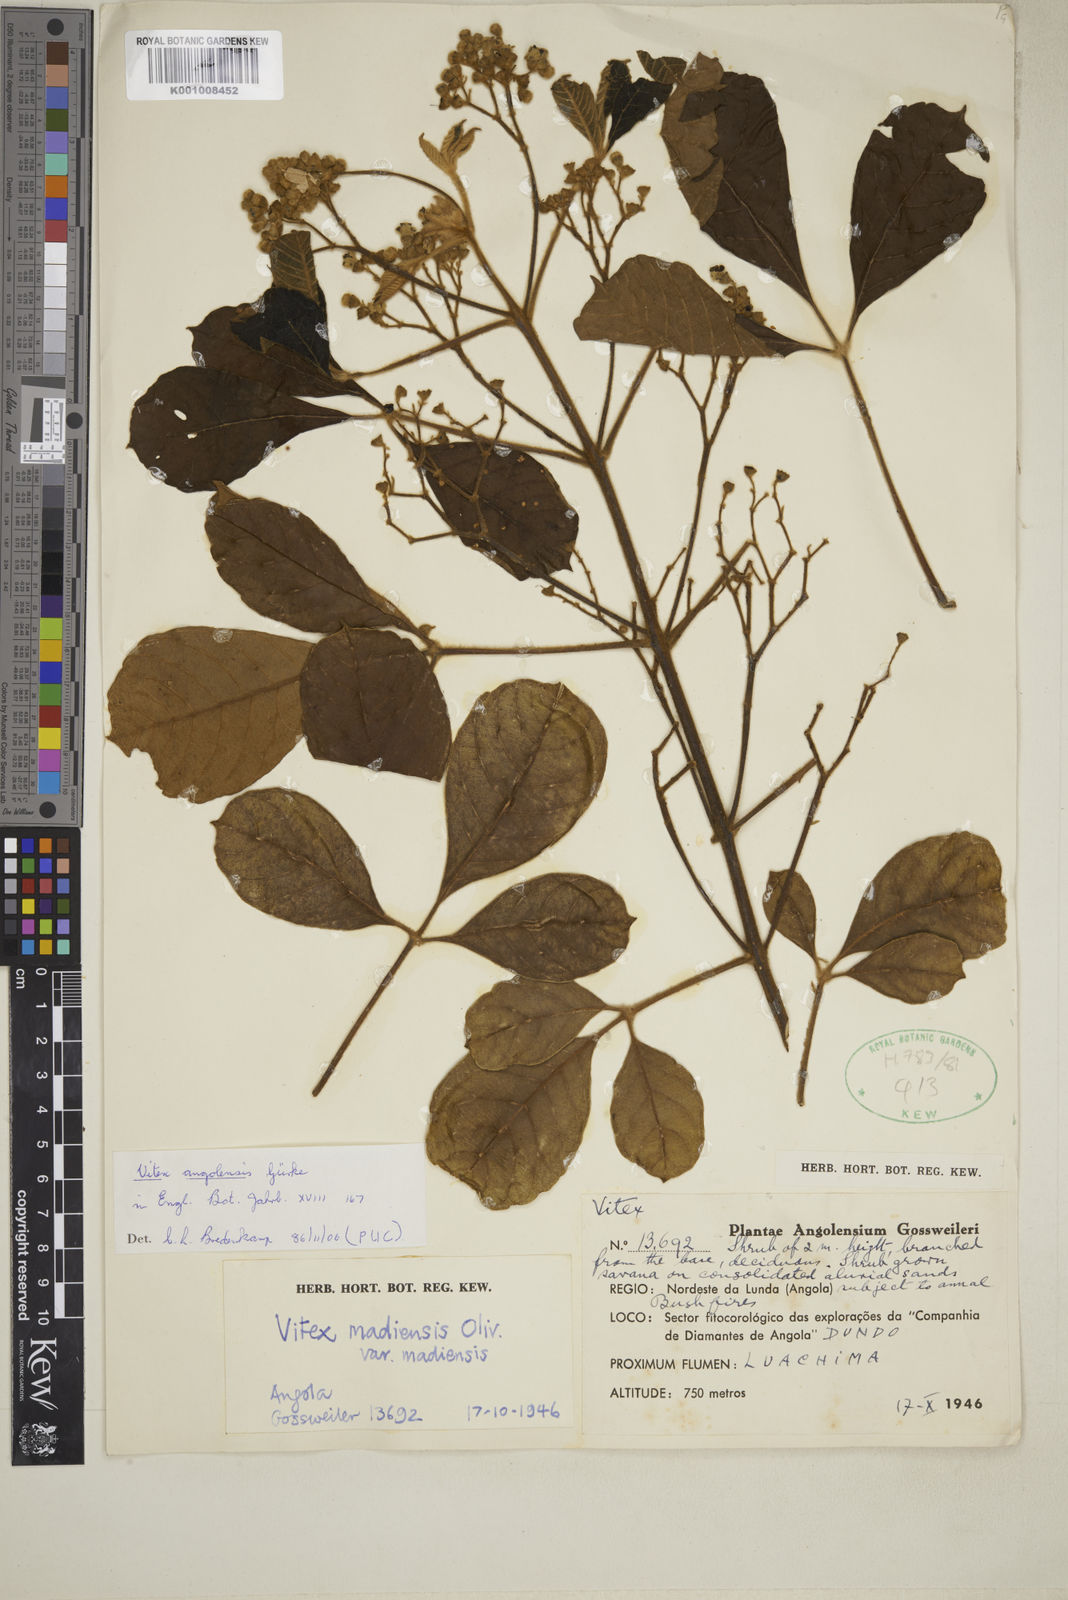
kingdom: Plantae
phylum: Tracheophyta
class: Magnoliopsida
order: Lamiales
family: Lamiaceae
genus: Vitex
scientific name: Vitex madiensis
